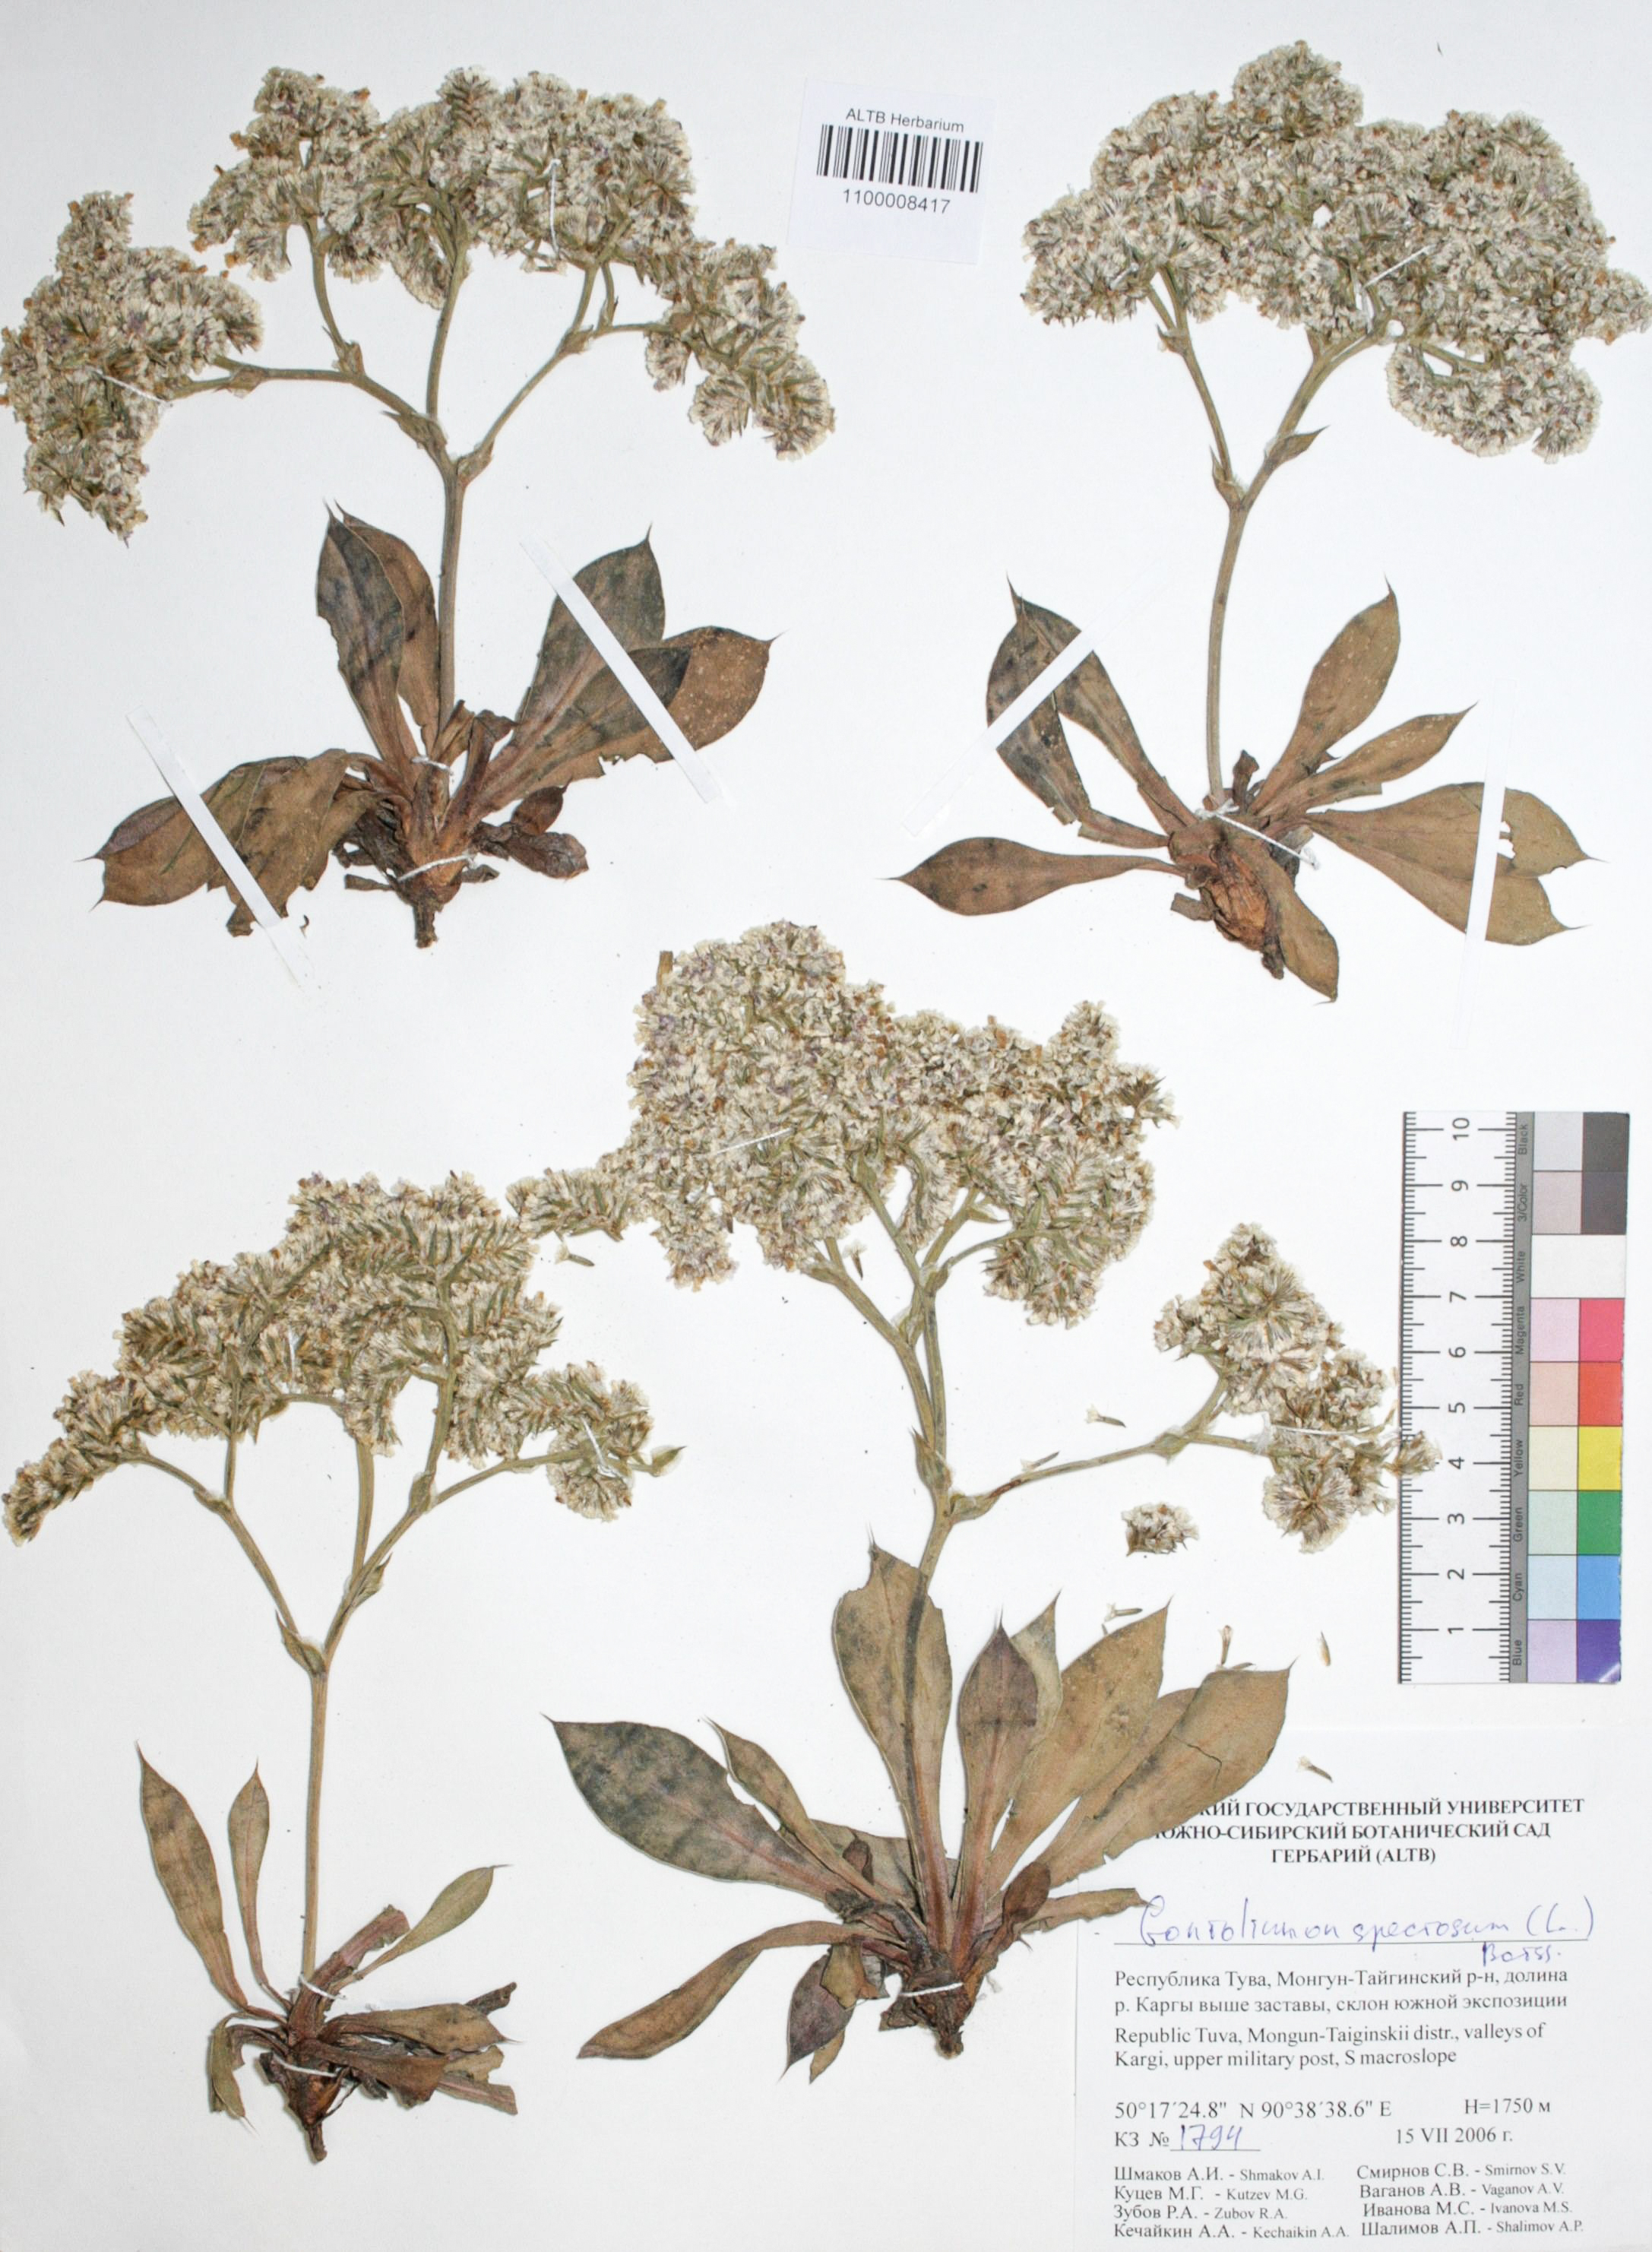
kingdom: Plantae
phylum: Tracheophyta
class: Magnoliopsida
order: Caryophyllales
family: Plumbaginaceae
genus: Goniolimon
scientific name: Goniolimon speciosum
